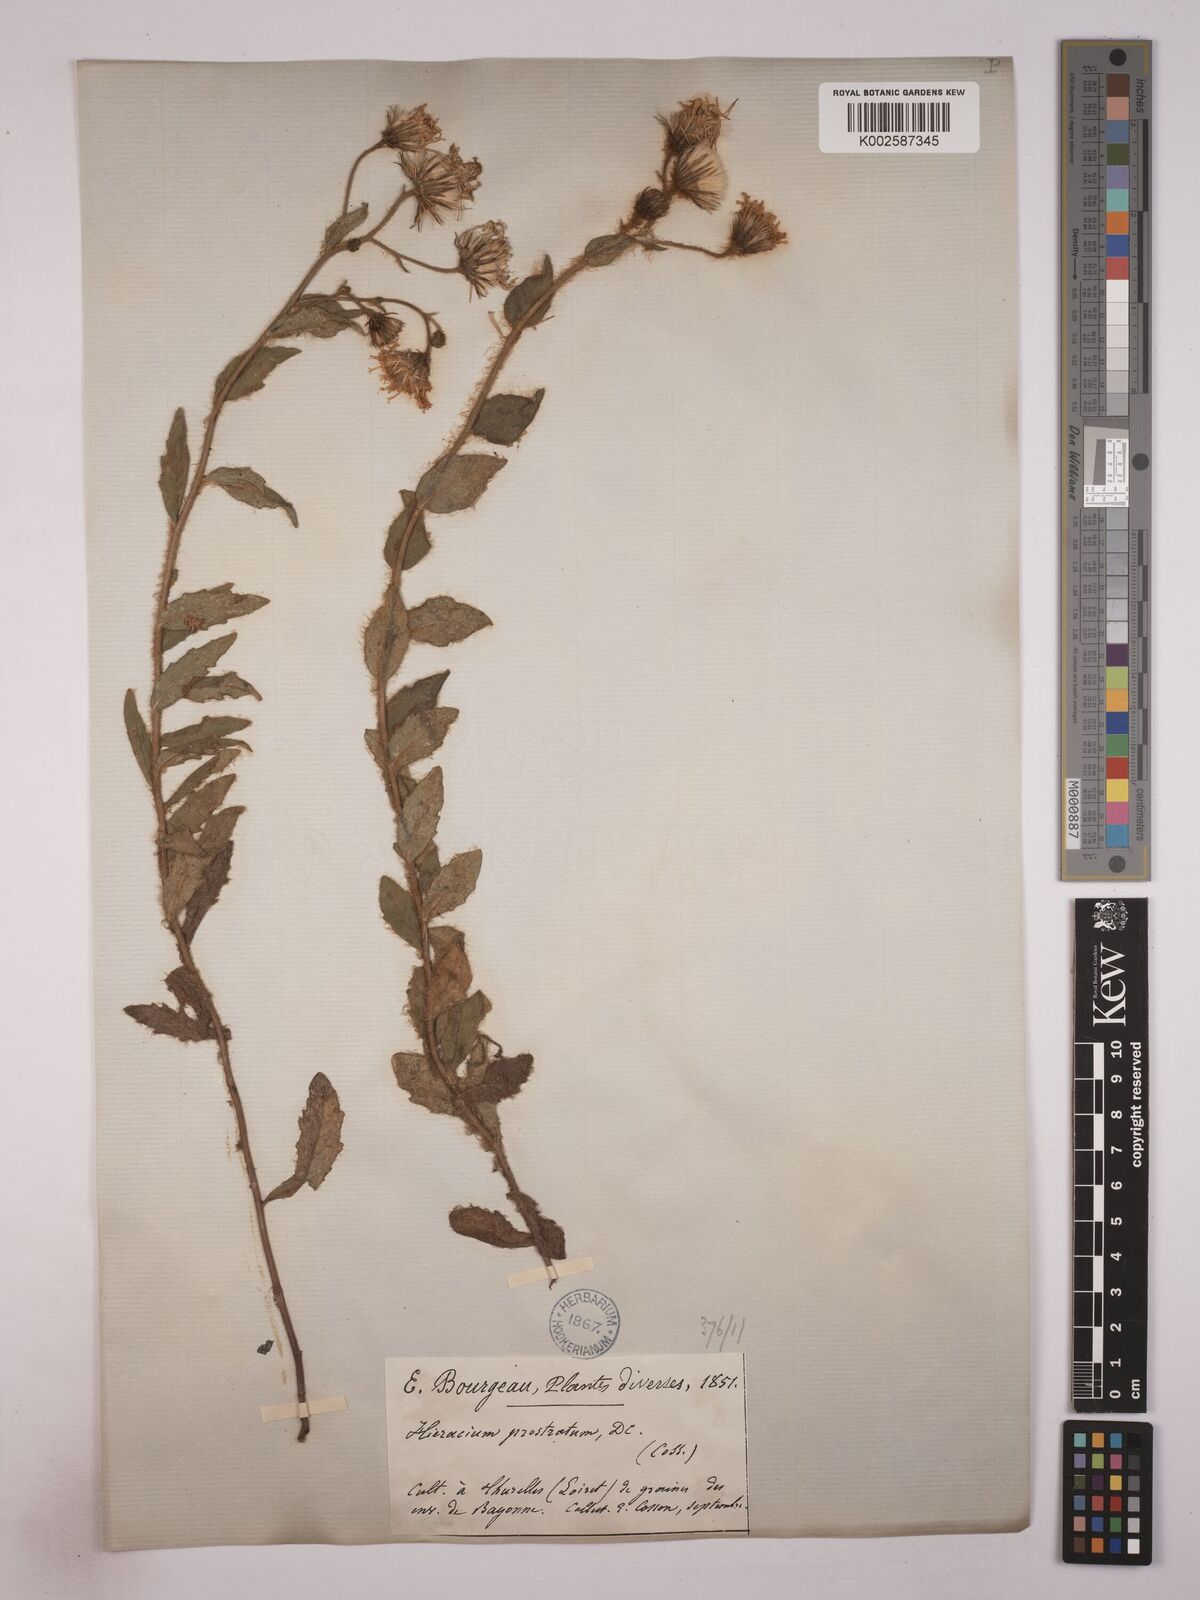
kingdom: Plantae
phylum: Tracheophyta
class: Magnoliopsida
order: Asterales
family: Asteraceae
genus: Hieracium
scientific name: Hieracium prostratum
